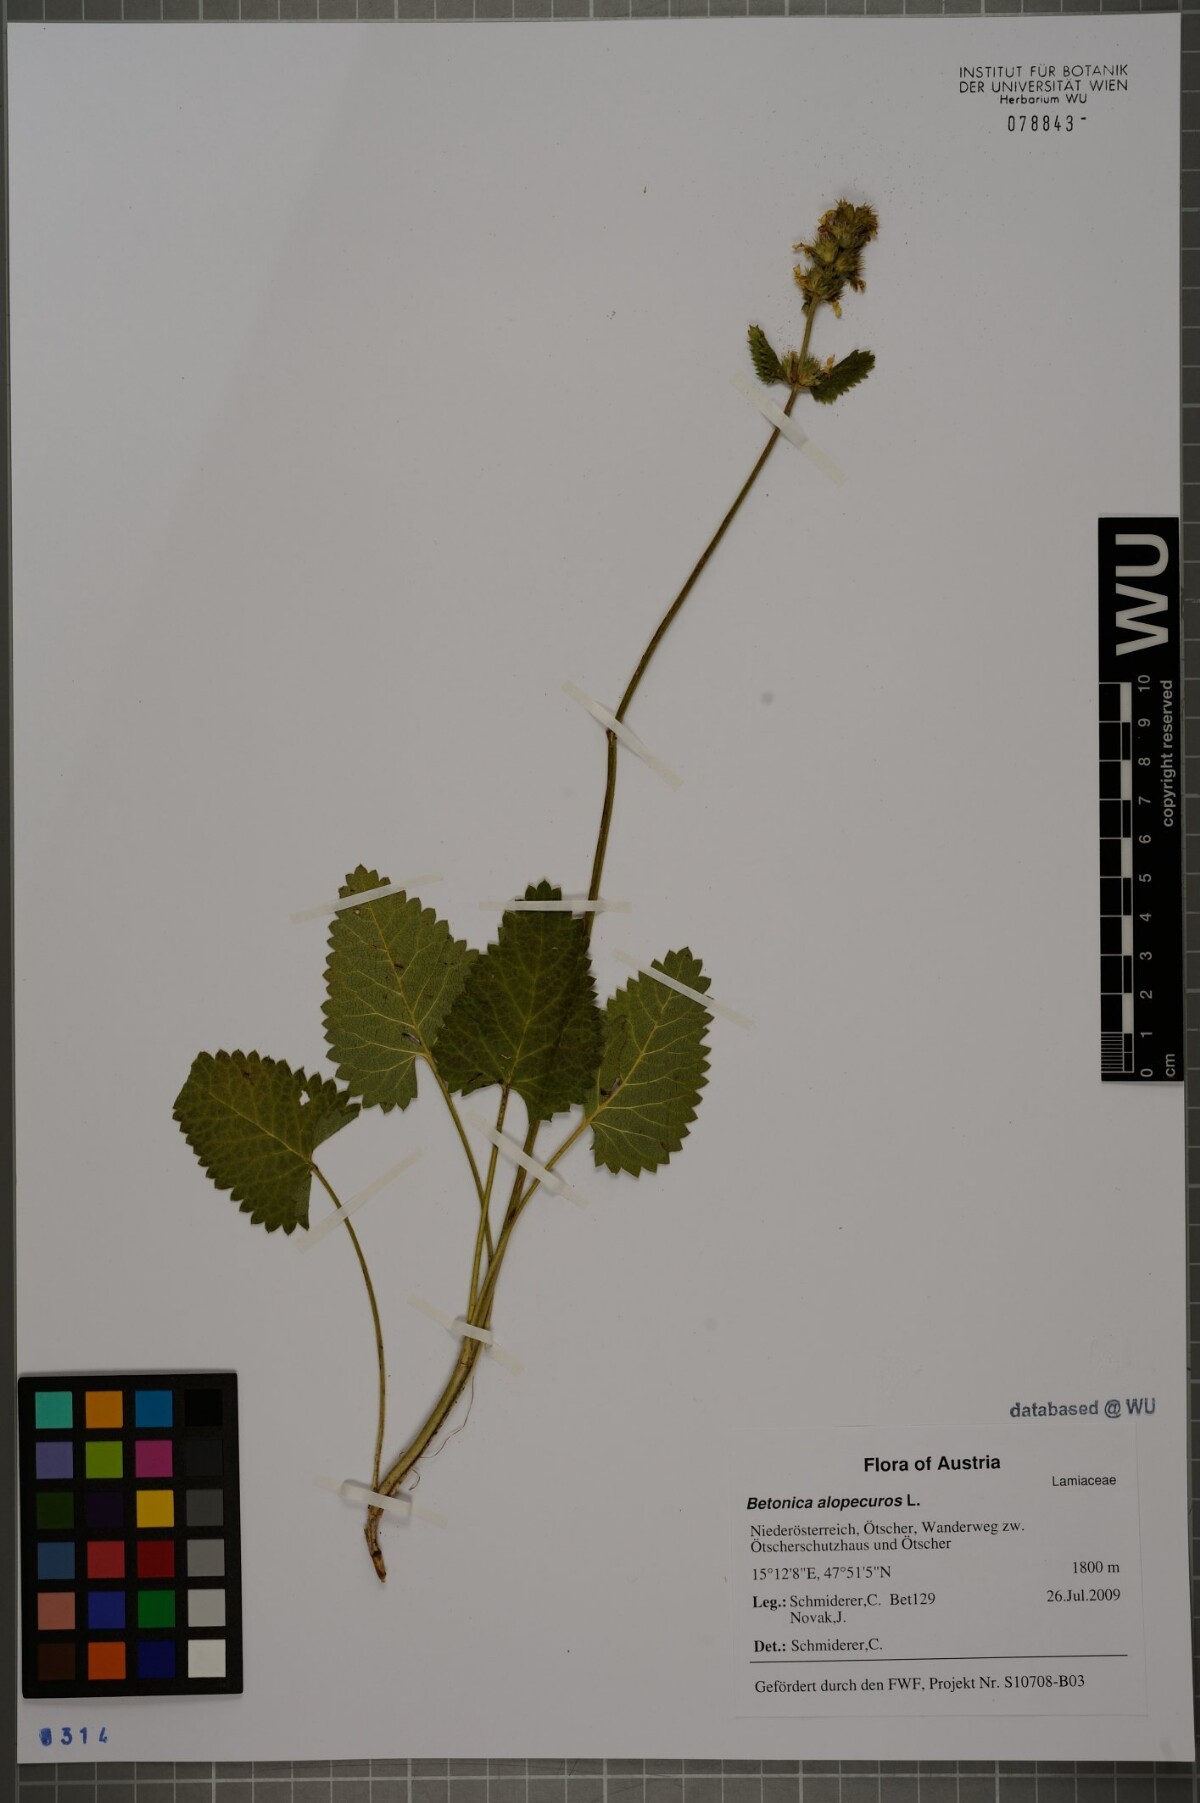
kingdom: Plantae
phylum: Tracheophyta
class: Magnoliopsida
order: Lamiales
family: Lamiaceae
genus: Betonica
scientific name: Betonica alopecuros
